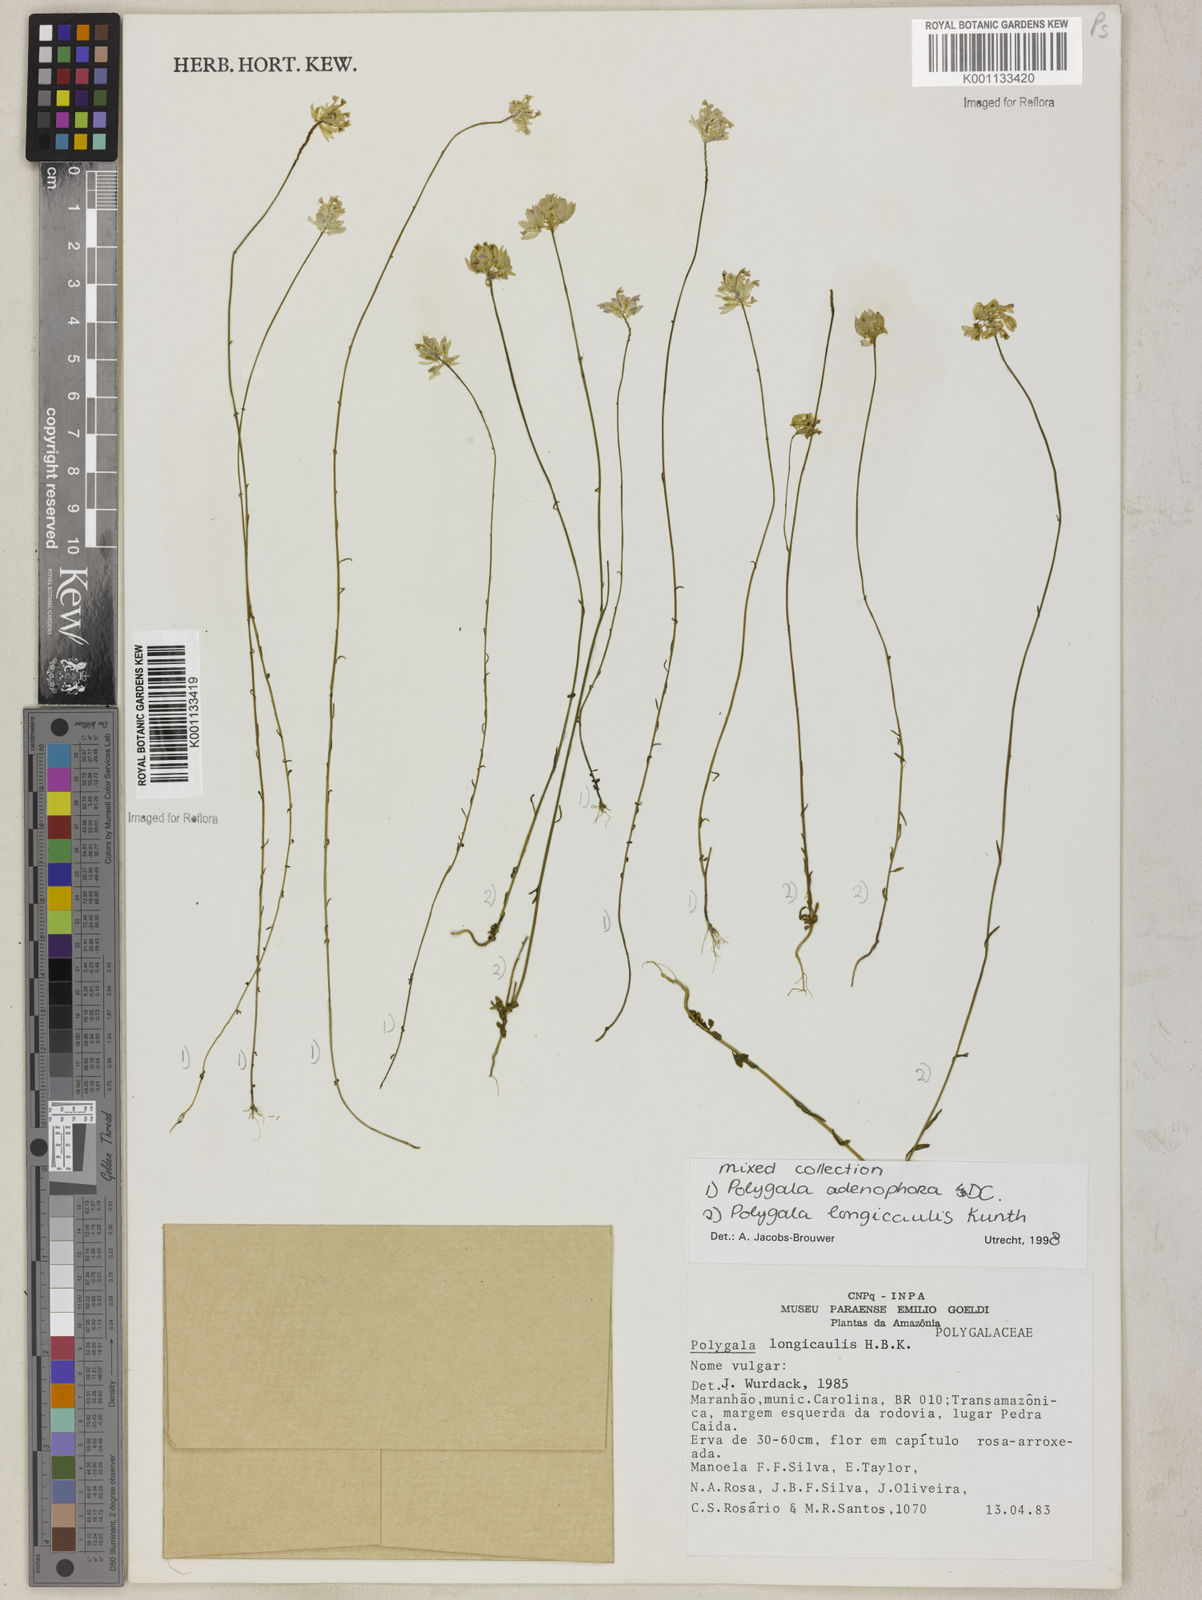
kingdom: Plantae
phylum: Tracheophyta
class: Magnoliopsida
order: Fabales
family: Polygalaceae
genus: Polygala
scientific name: Polygala longicaulis
